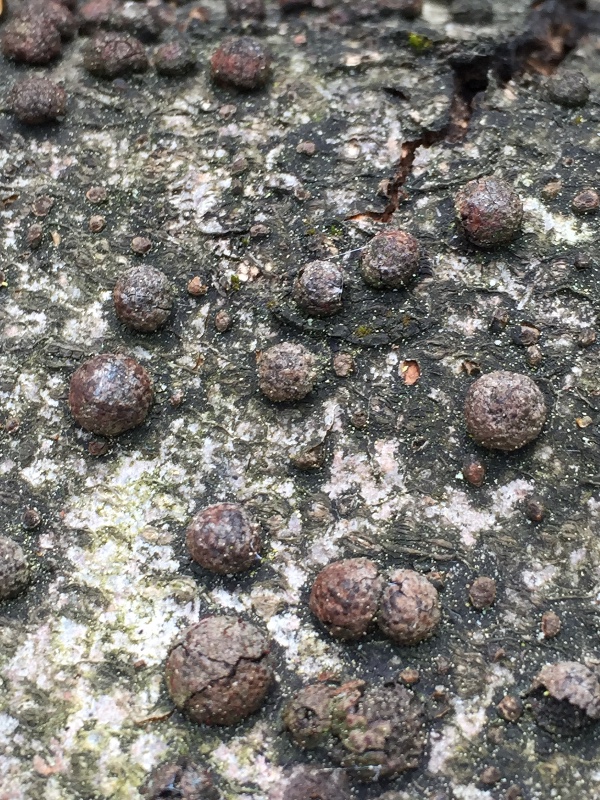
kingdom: Fungi
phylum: Ascomycota
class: Sordariomycetes
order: Xylariales
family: Hypoxylaceae
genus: Hypoxylon
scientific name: Hypoxylon fragiforme
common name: kuljordbær
